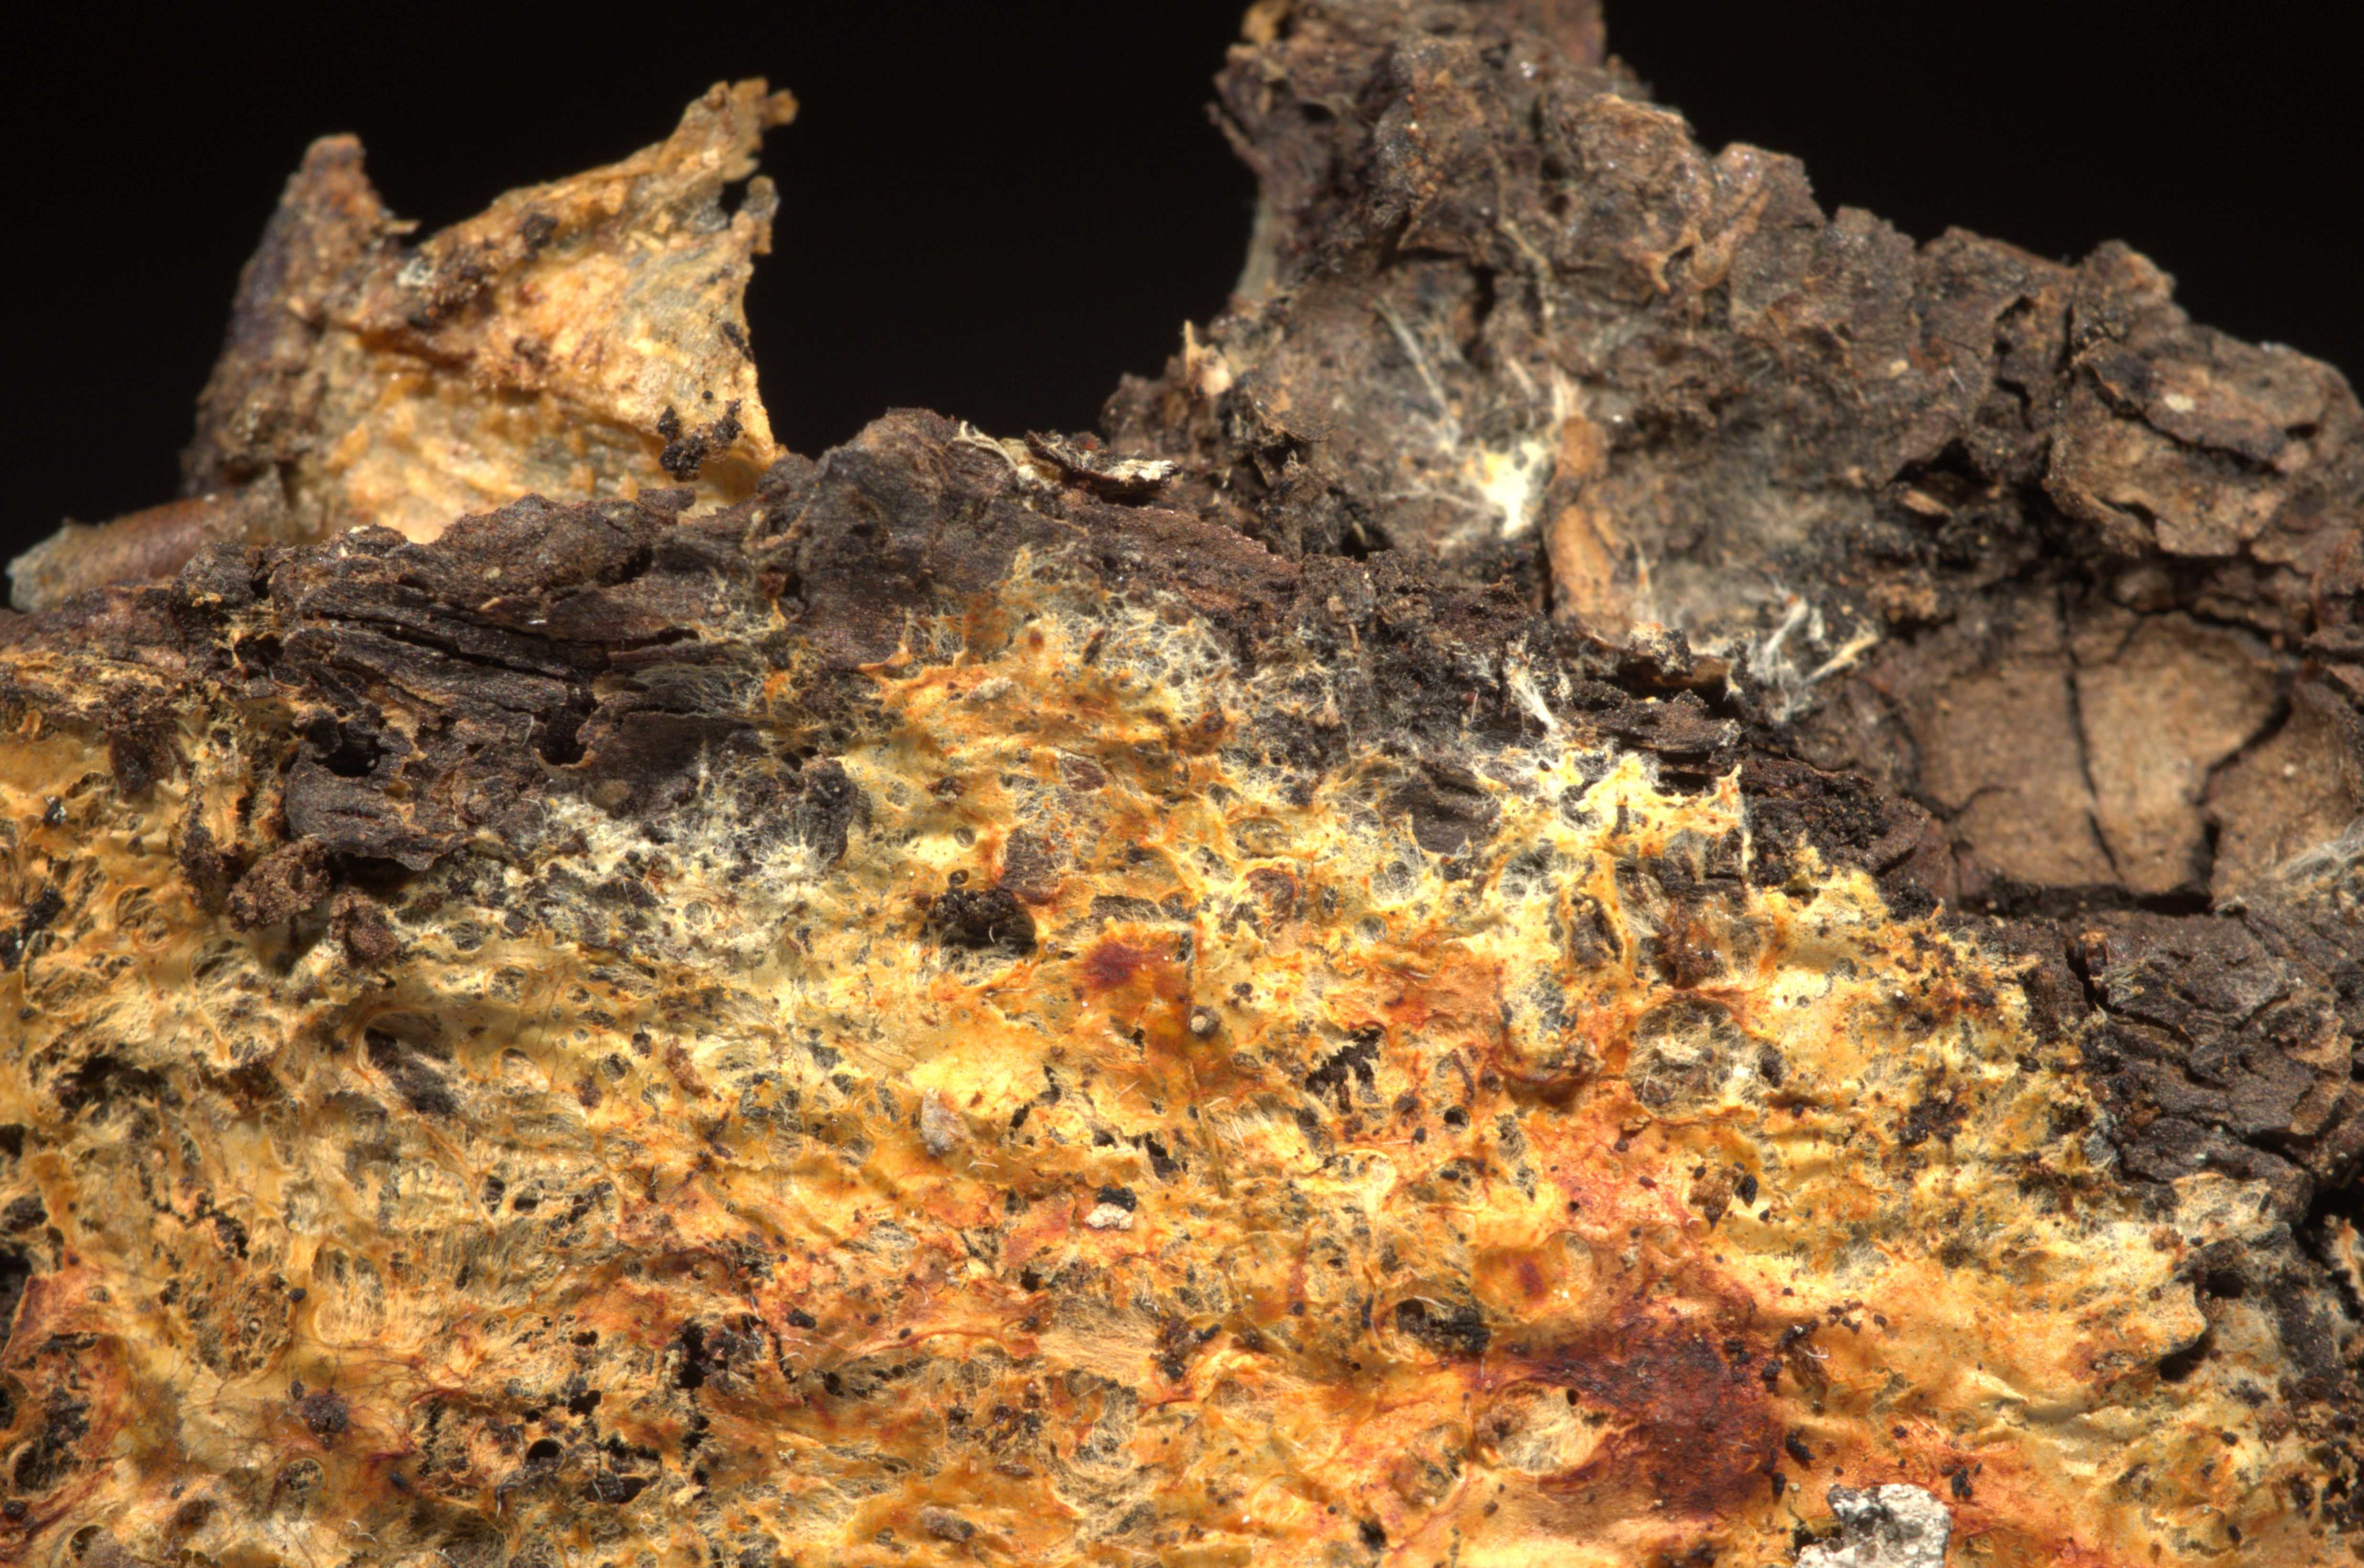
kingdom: Fungi
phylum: Basidiomycota
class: Agaricomycetes
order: Polyporales
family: Phanerochaetaceae
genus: Atheliachaete
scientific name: Atheliachaete sanguinea
